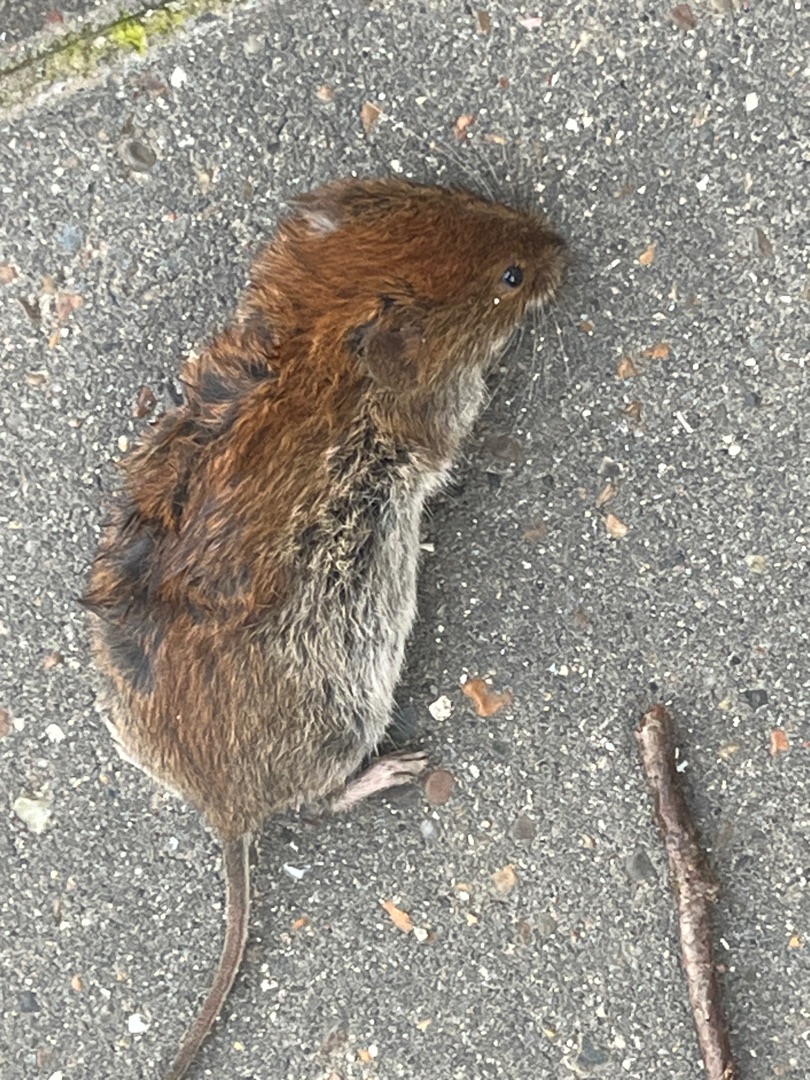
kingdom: Animalia
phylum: Chordata
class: Mammalia
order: Rodentia
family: Cricetidae
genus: Myodes
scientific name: Myodes glareolus
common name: Rødmus
